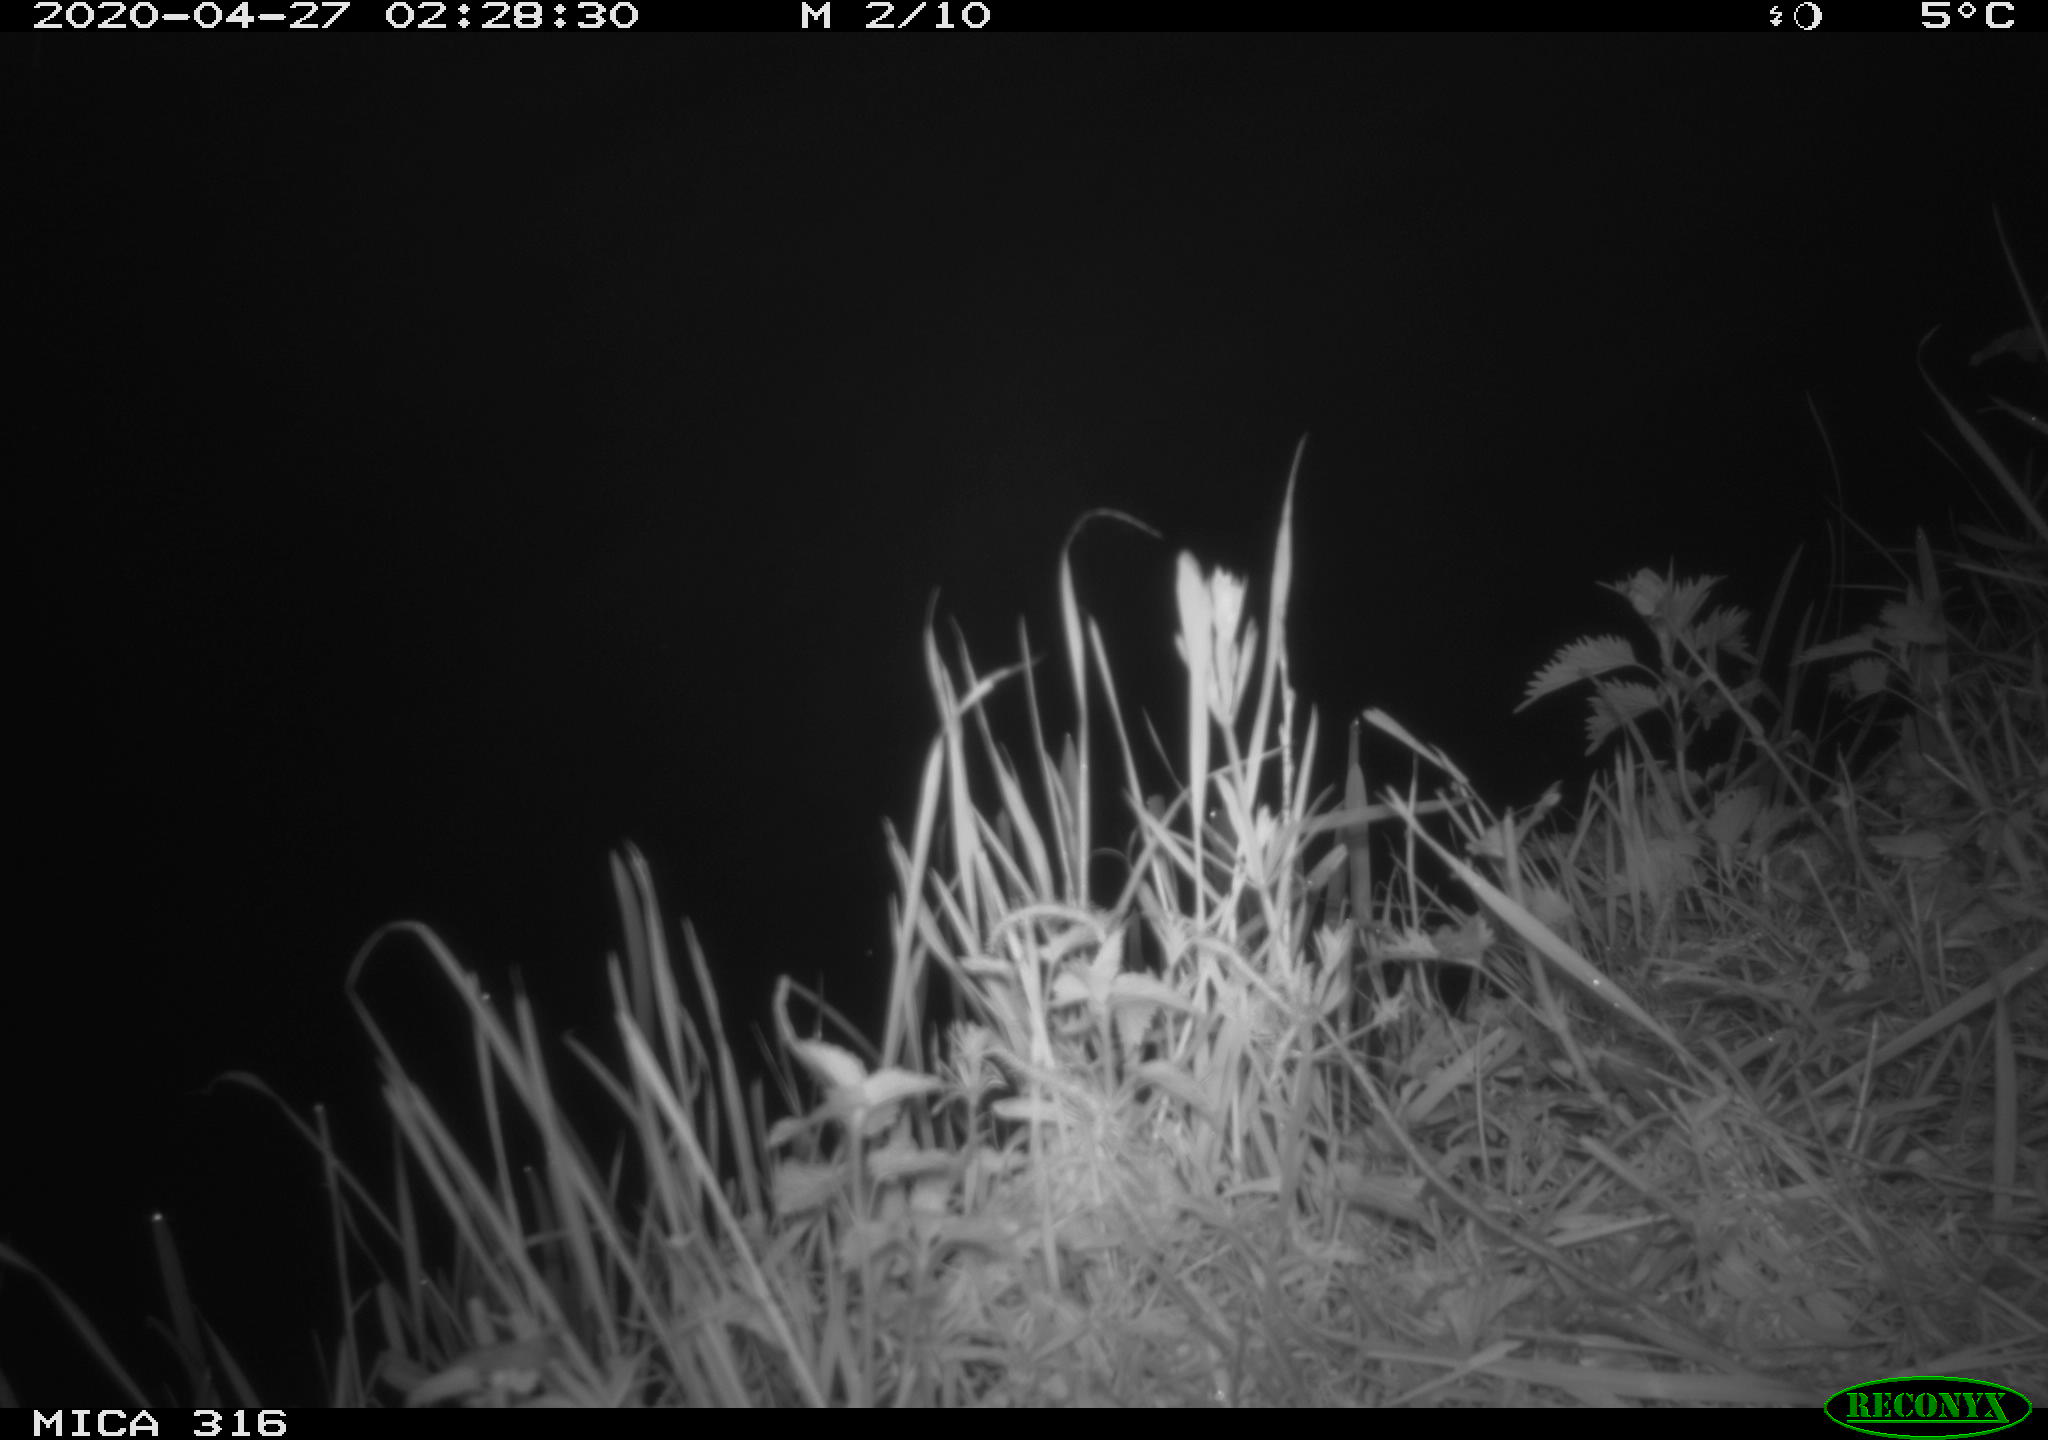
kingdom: Animalia
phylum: Chordata
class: Aves
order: Anseriformes
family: Anatidae
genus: Anas
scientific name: Anas platyrhynchos
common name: Mallard
